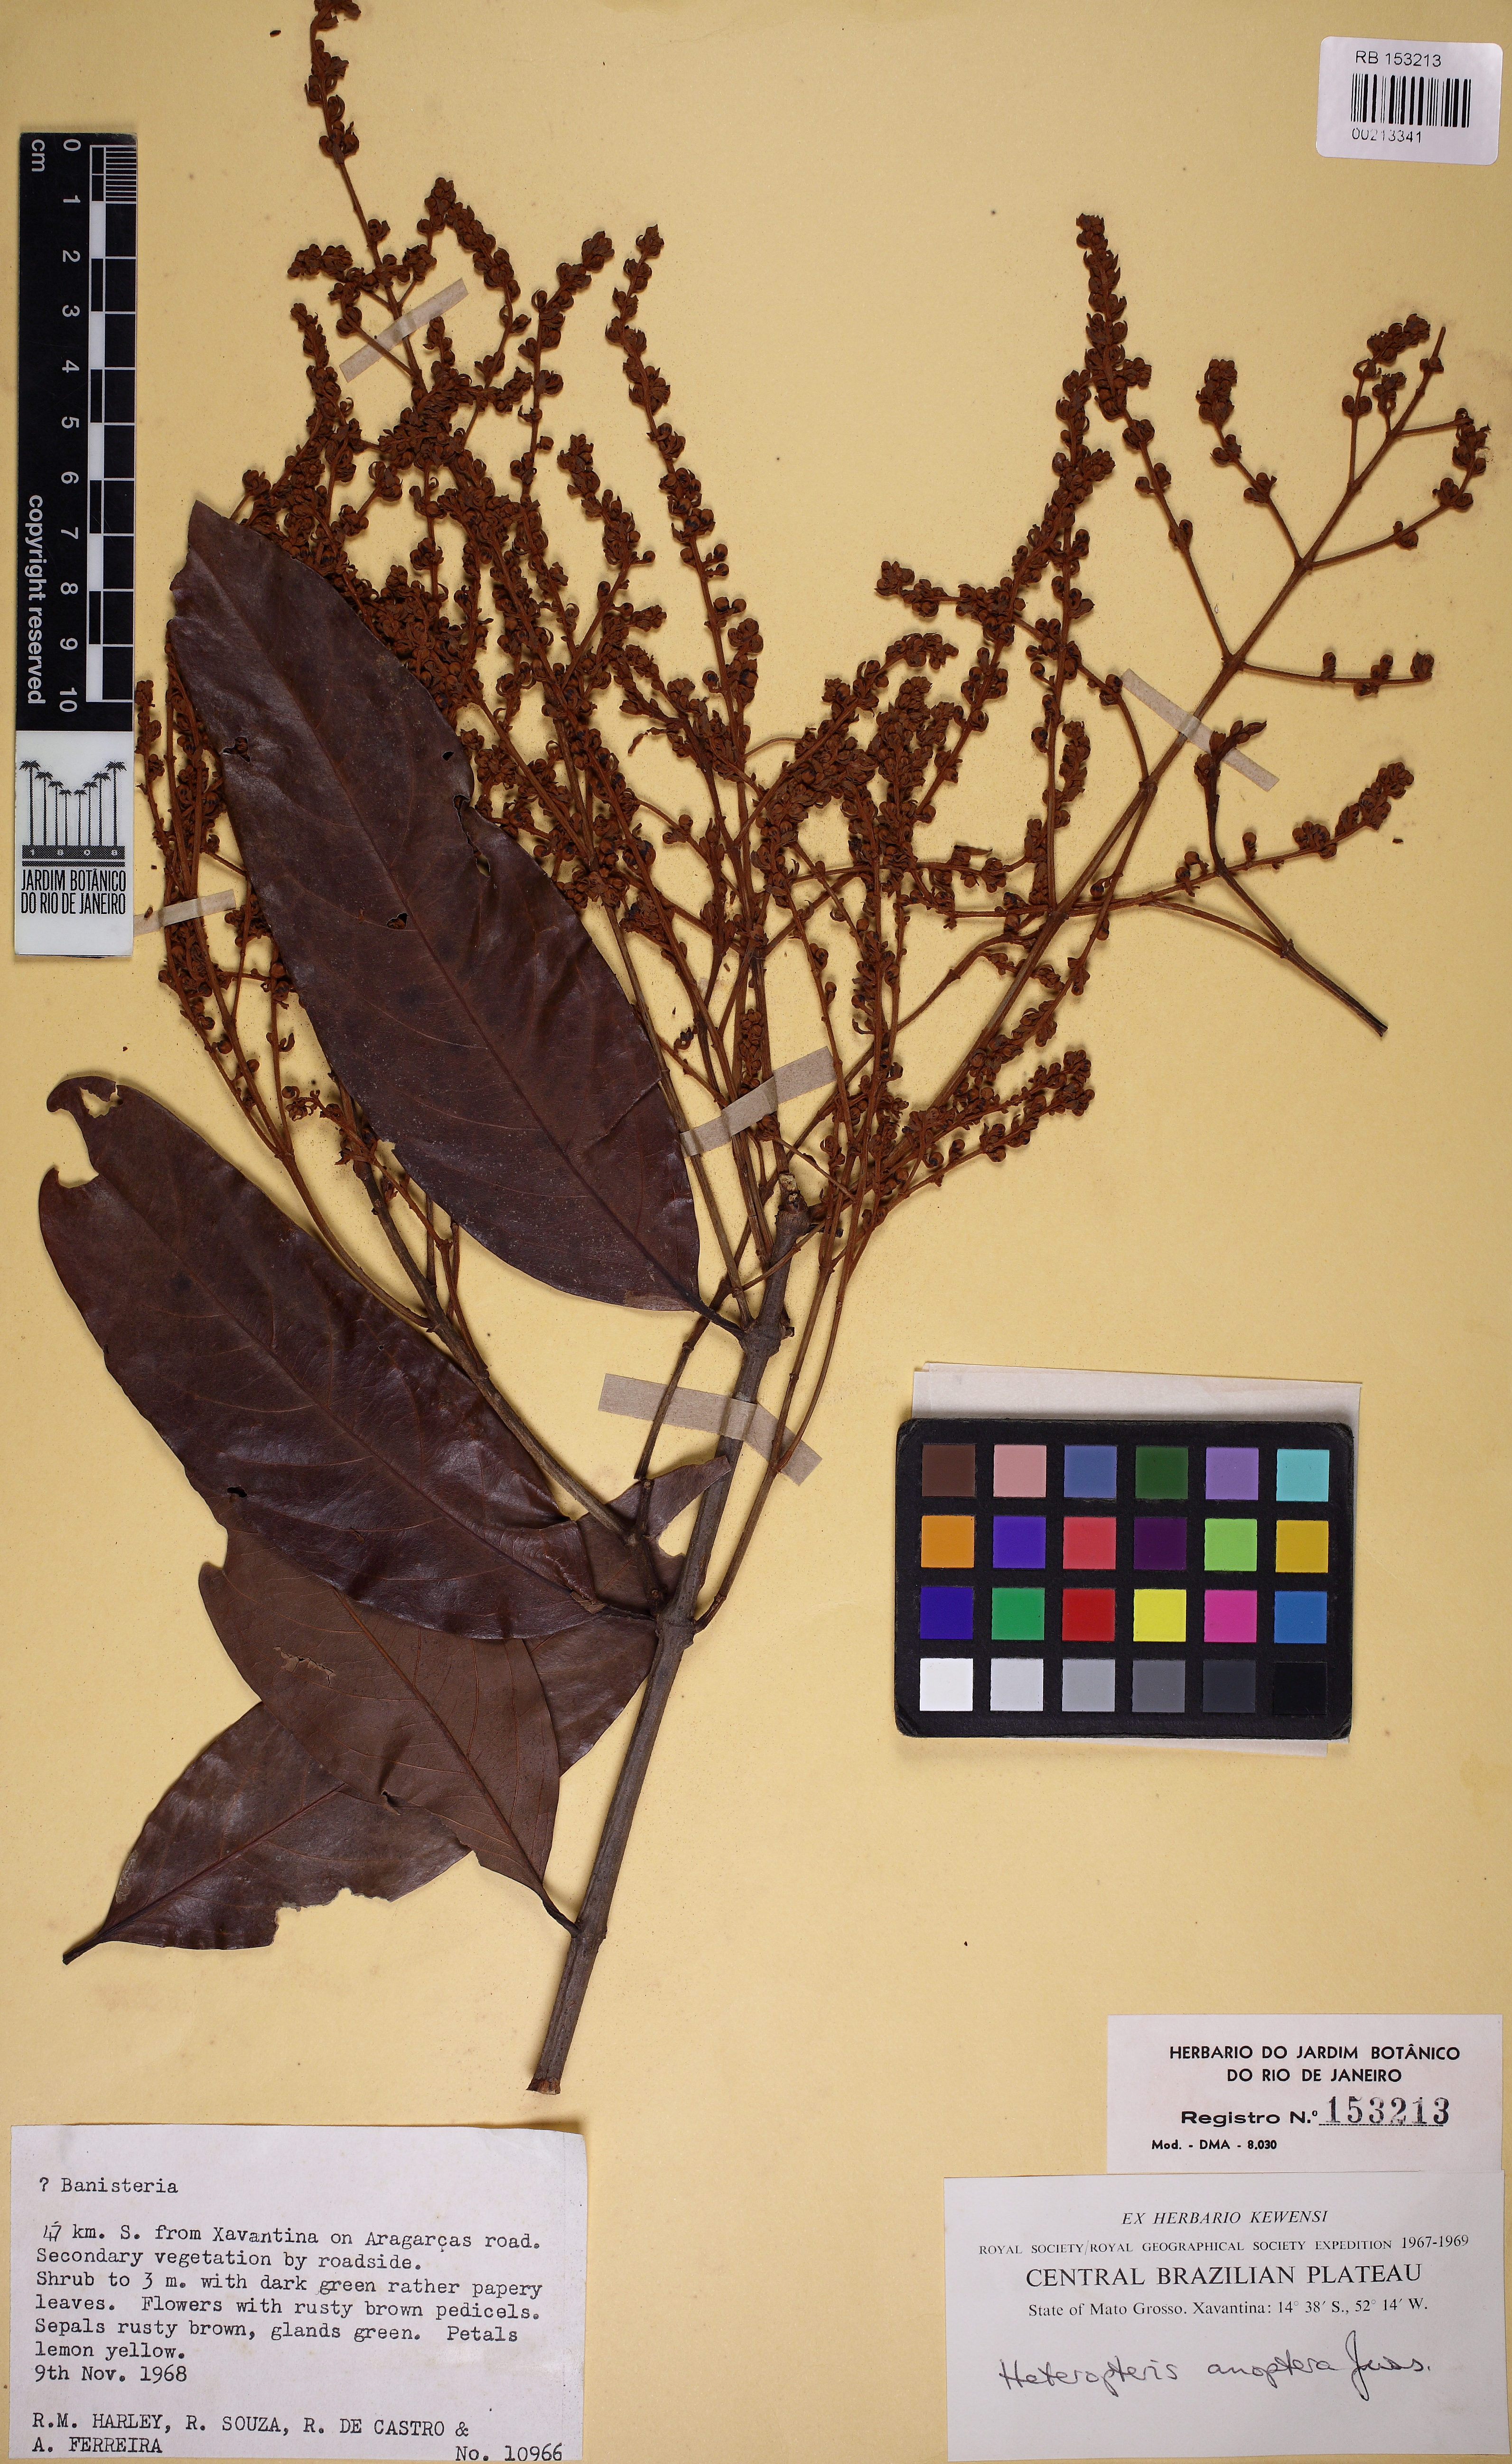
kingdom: Plantae
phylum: Tracheophyta
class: Magnoliopsida
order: Malpighiales
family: Malpighiaceae
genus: Heteropterys
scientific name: Heteropterys anoptera
